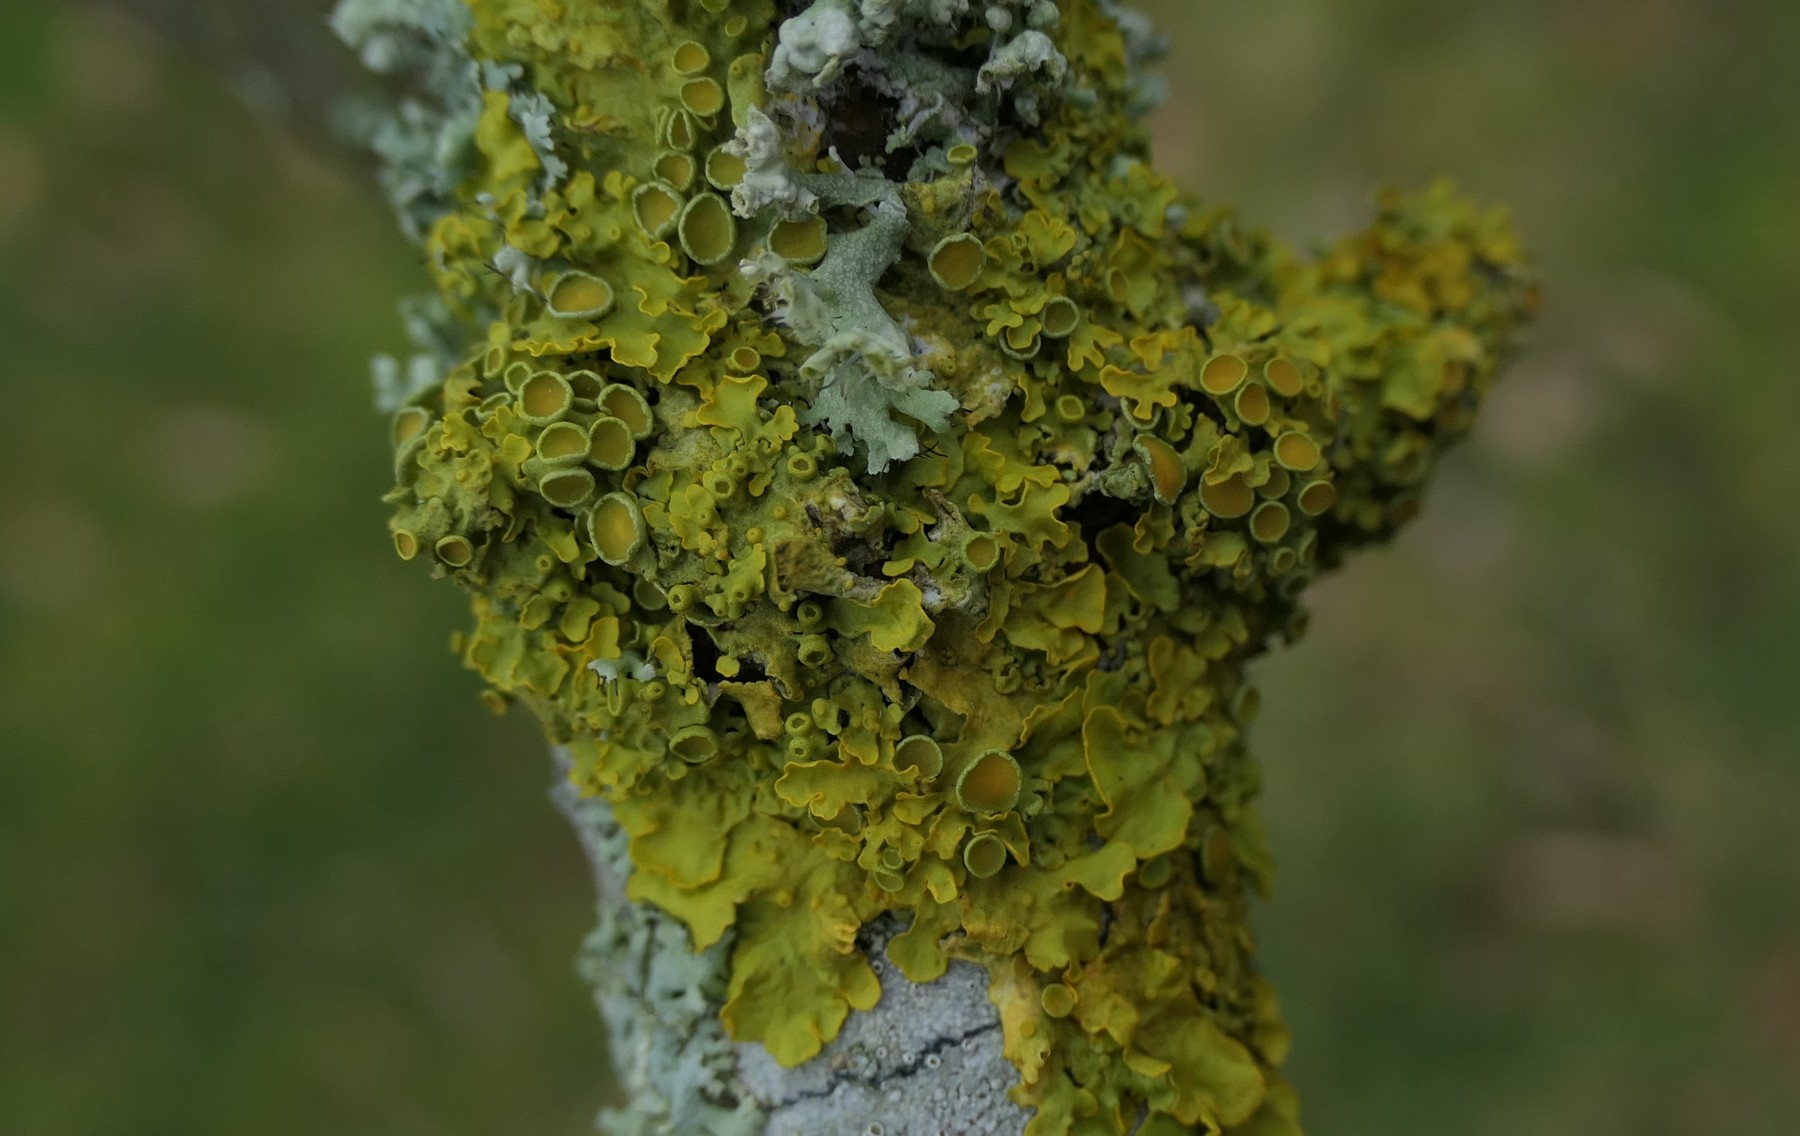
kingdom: Fungi
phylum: Ascomycota
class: Lecanoromycetes
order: Teloschistales
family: Teloschistaceae
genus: Xanthoria
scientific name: Xanthoria parietina
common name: almindelig væggelav
